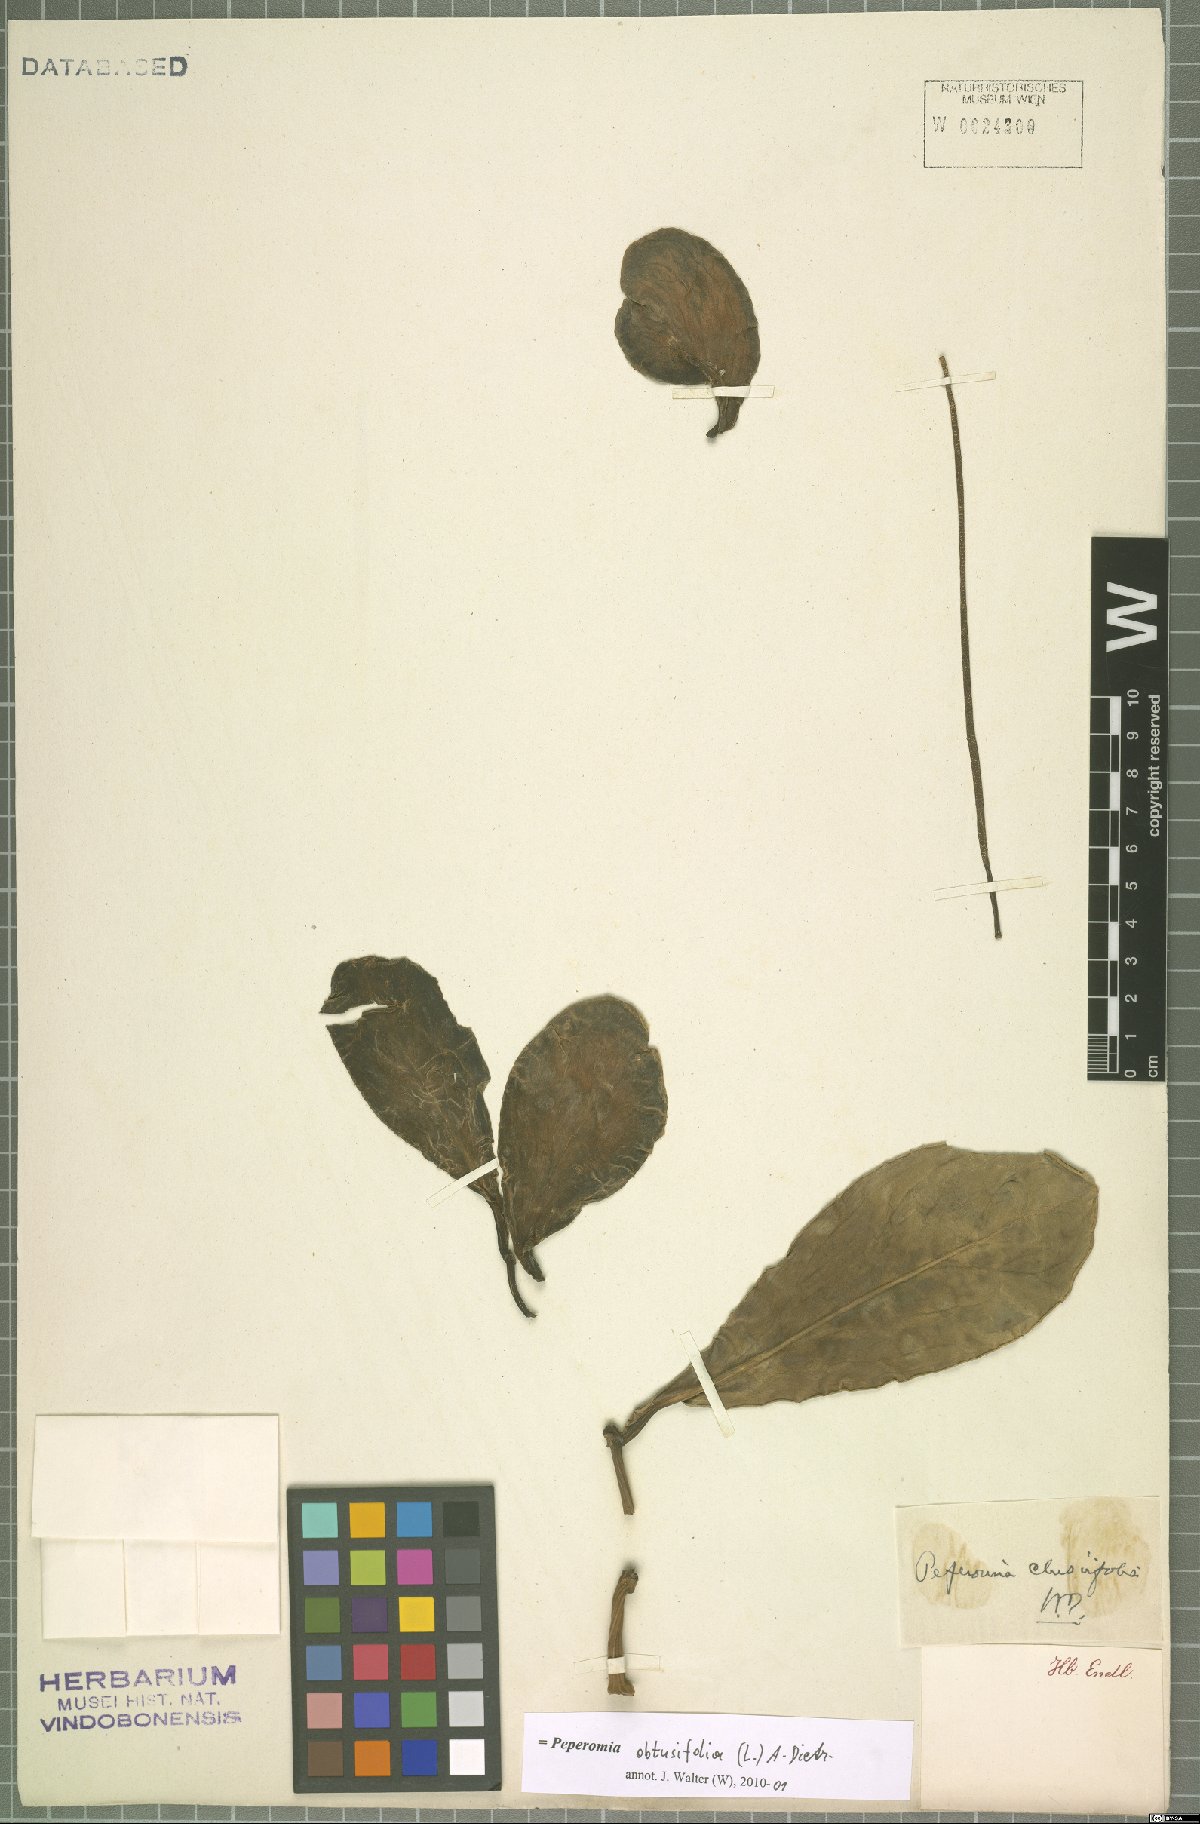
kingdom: Plantae
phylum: Tracheophyta
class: Magnoliopsida
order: Piperales
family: Piperaceae
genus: Peperomia
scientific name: Peperomia obtusifolia
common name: Baby rubberplant
